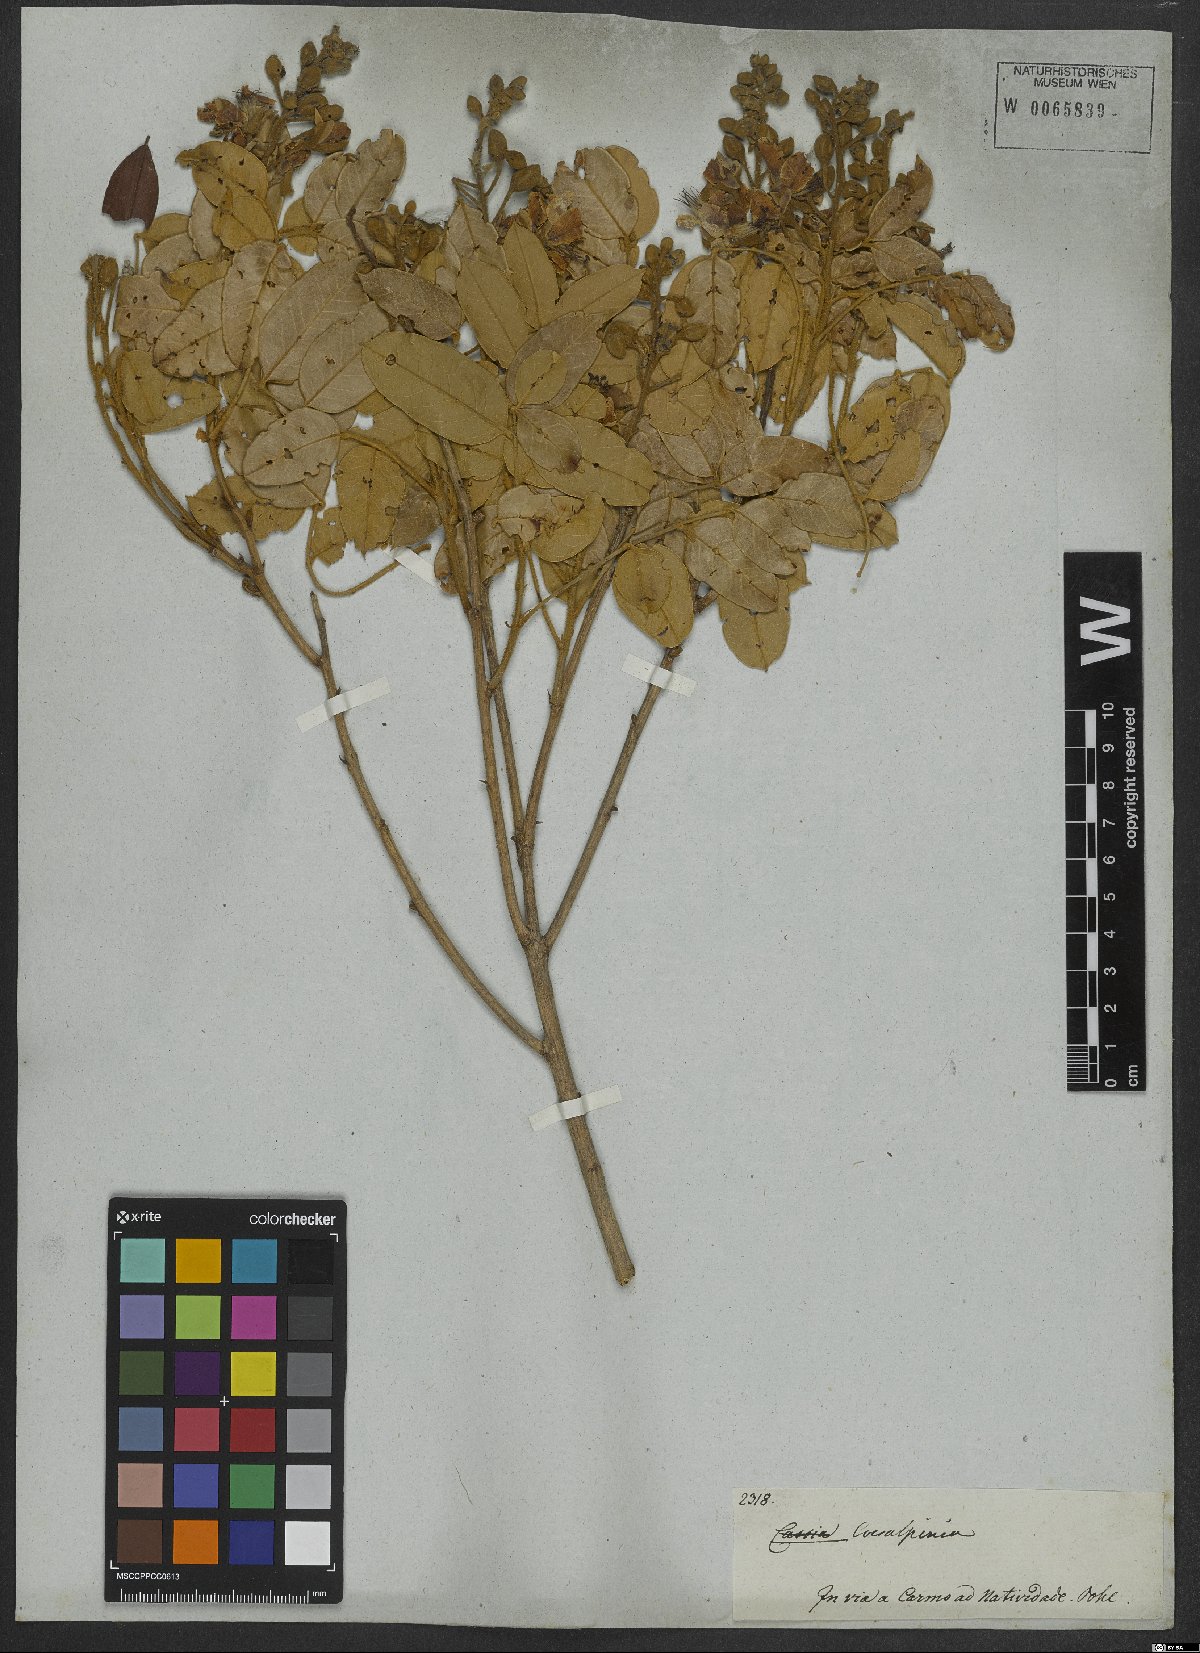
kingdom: Plantae
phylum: Tracheophyta
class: Magnoliopsida
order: Fabales
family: Fabaceae
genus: Caesalpinia
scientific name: Caesalpinia
